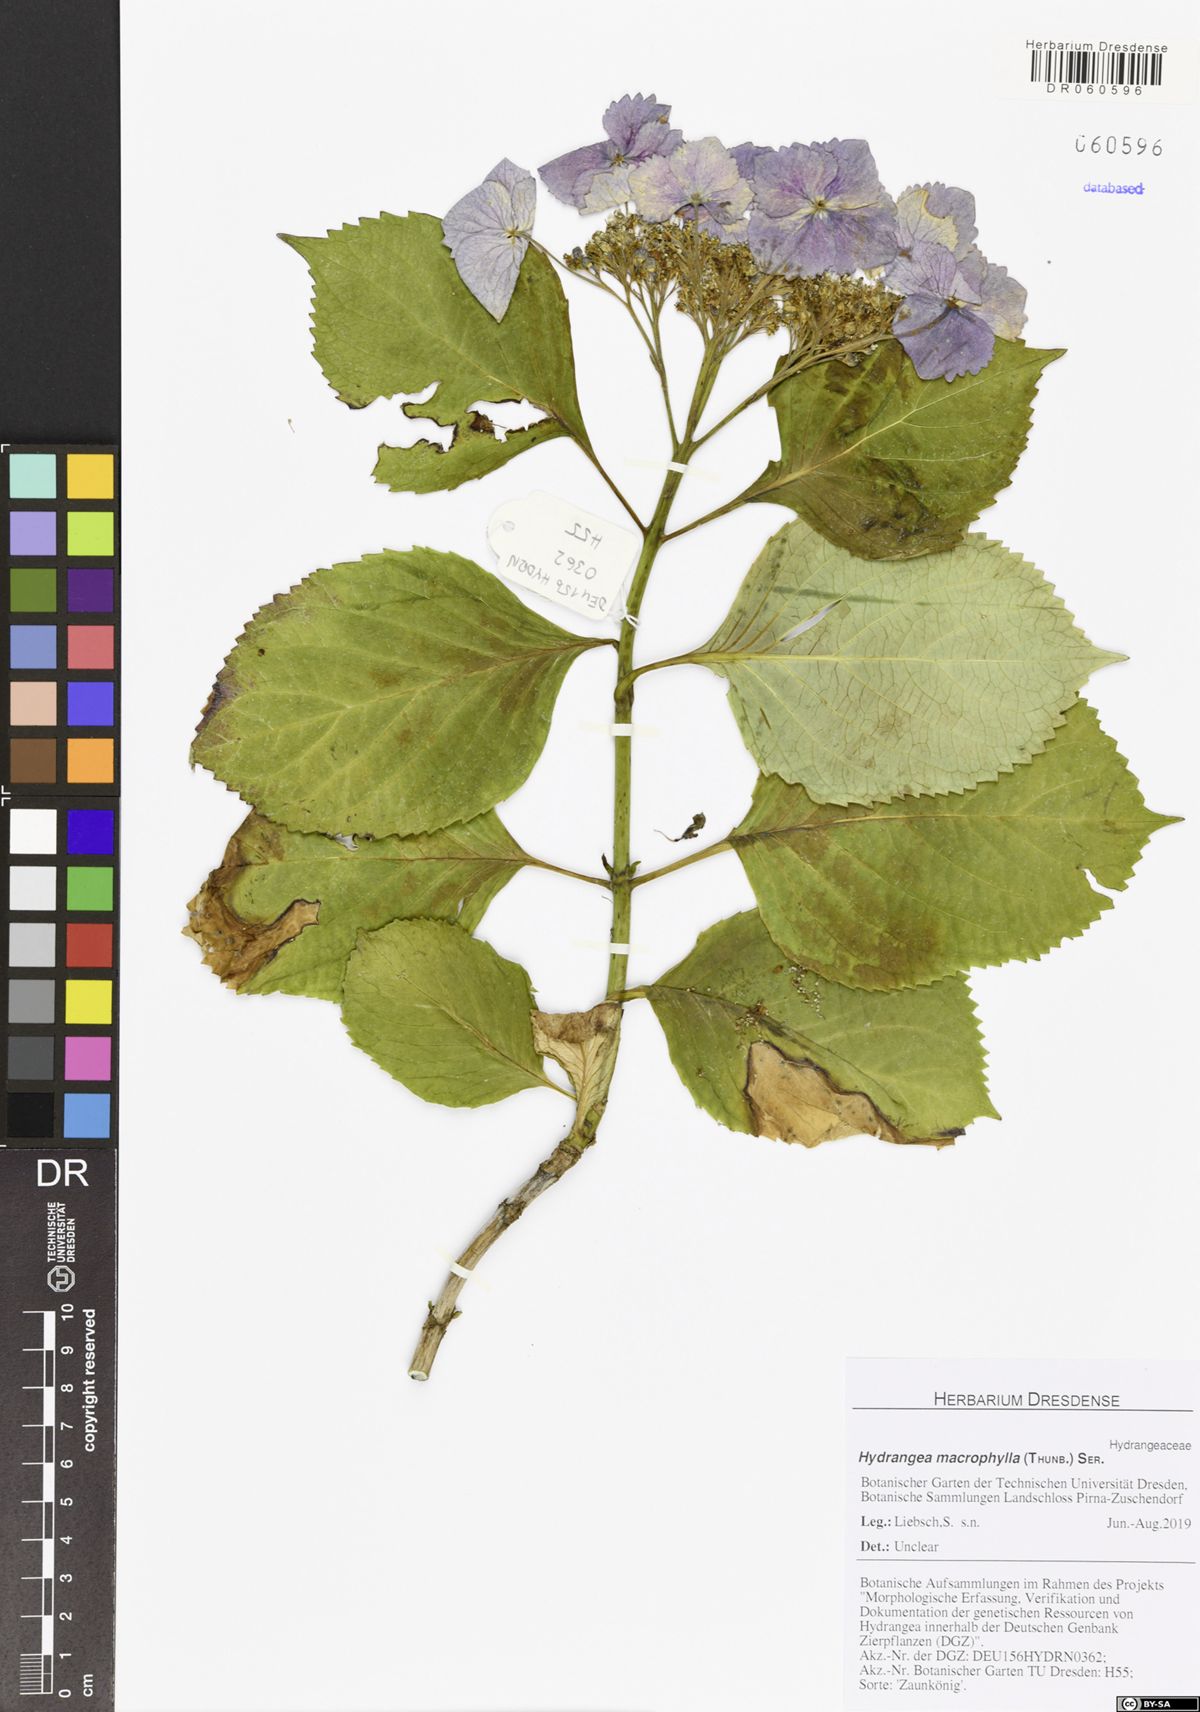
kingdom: Plantae
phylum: Tracheophyta
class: Magnoliopsida
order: Cornales
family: Hydrangeaceae
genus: Hydrangea
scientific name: Hydrangea macrophylla
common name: Hydrangea
